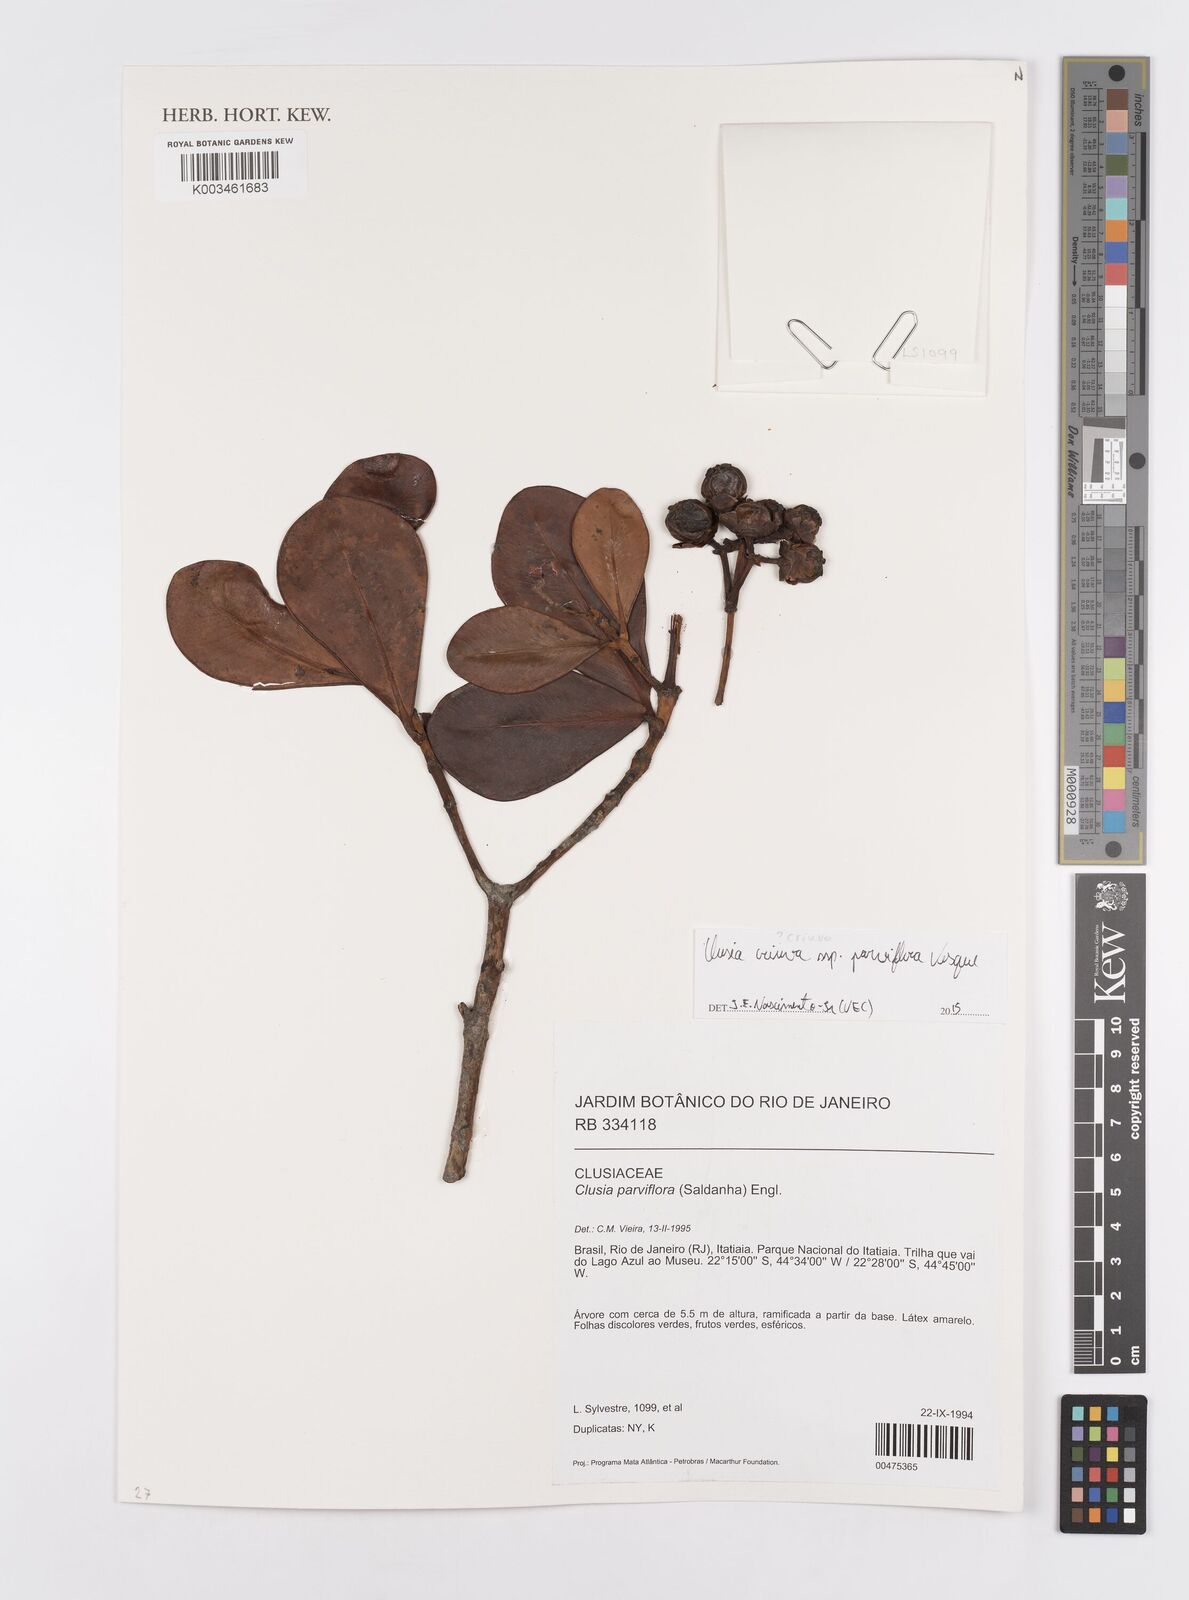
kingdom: Plantae
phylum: Tracheophyta
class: Magnoliopsida
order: Malpighiales
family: Clusiaceae
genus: Clusia
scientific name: Clusia criuva
